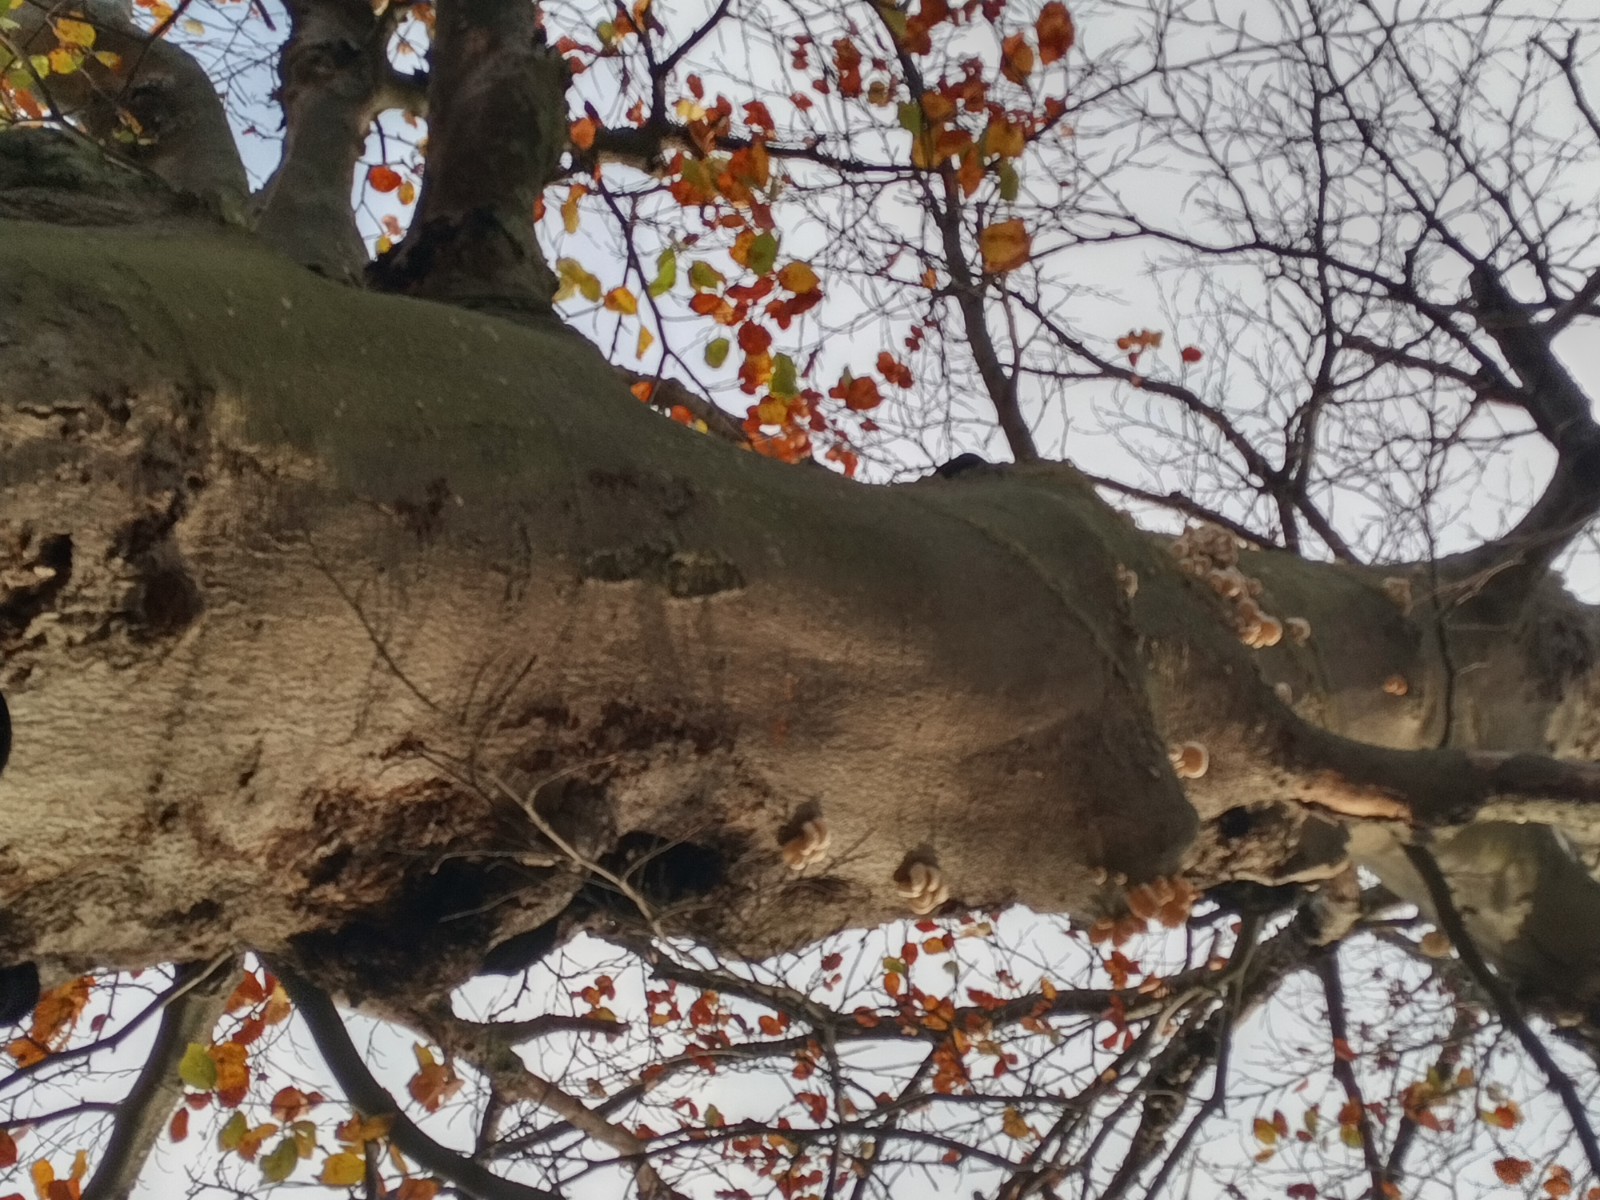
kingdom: Fungi
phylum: Basidiomycota
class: Agaricomycetes
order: Agaricales
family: Physalacriaceae
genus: Mucidula
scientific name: Mucidula mucida
